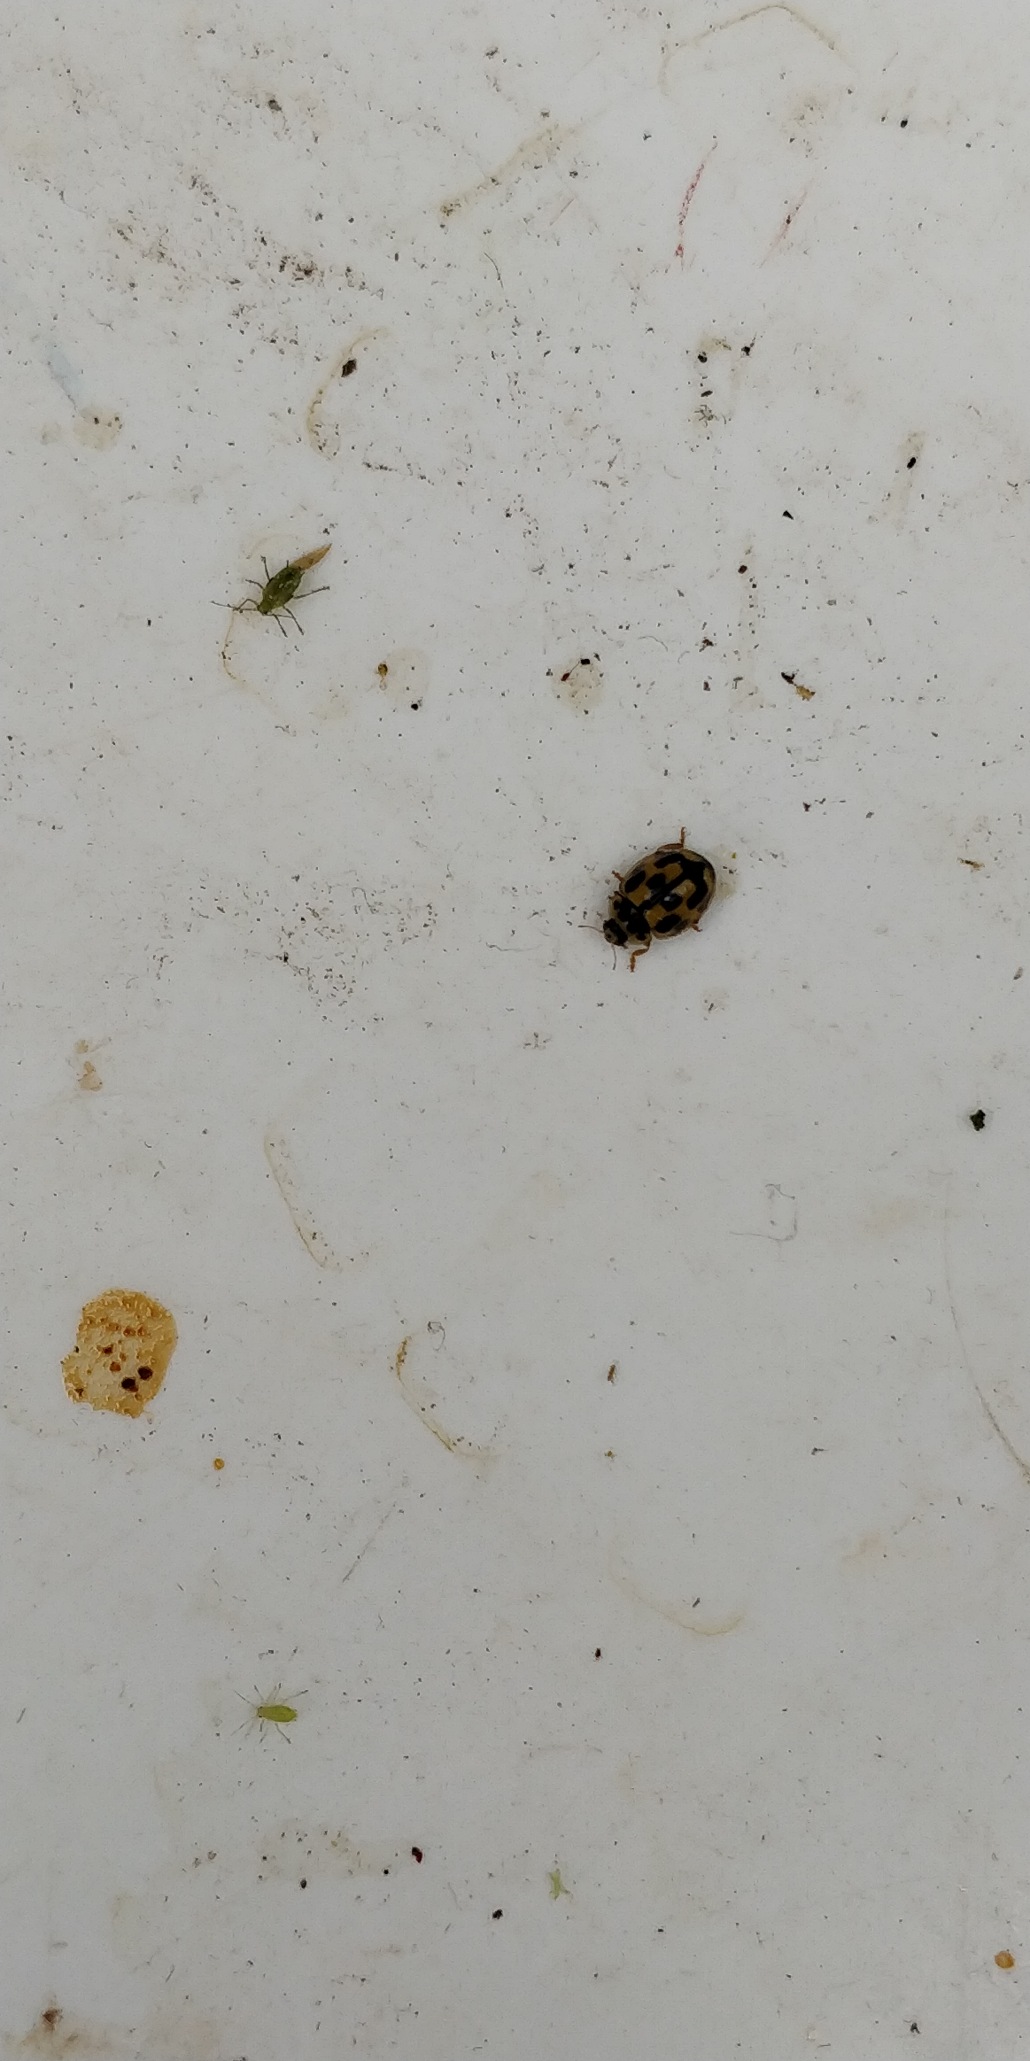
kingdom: Animalia
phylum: Arthropoda
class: Insecta
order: Coleoptera
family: Coccinellidae
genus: Propylaea
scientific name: Propylaea quatuordecimpunctata
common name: Skakbræt
